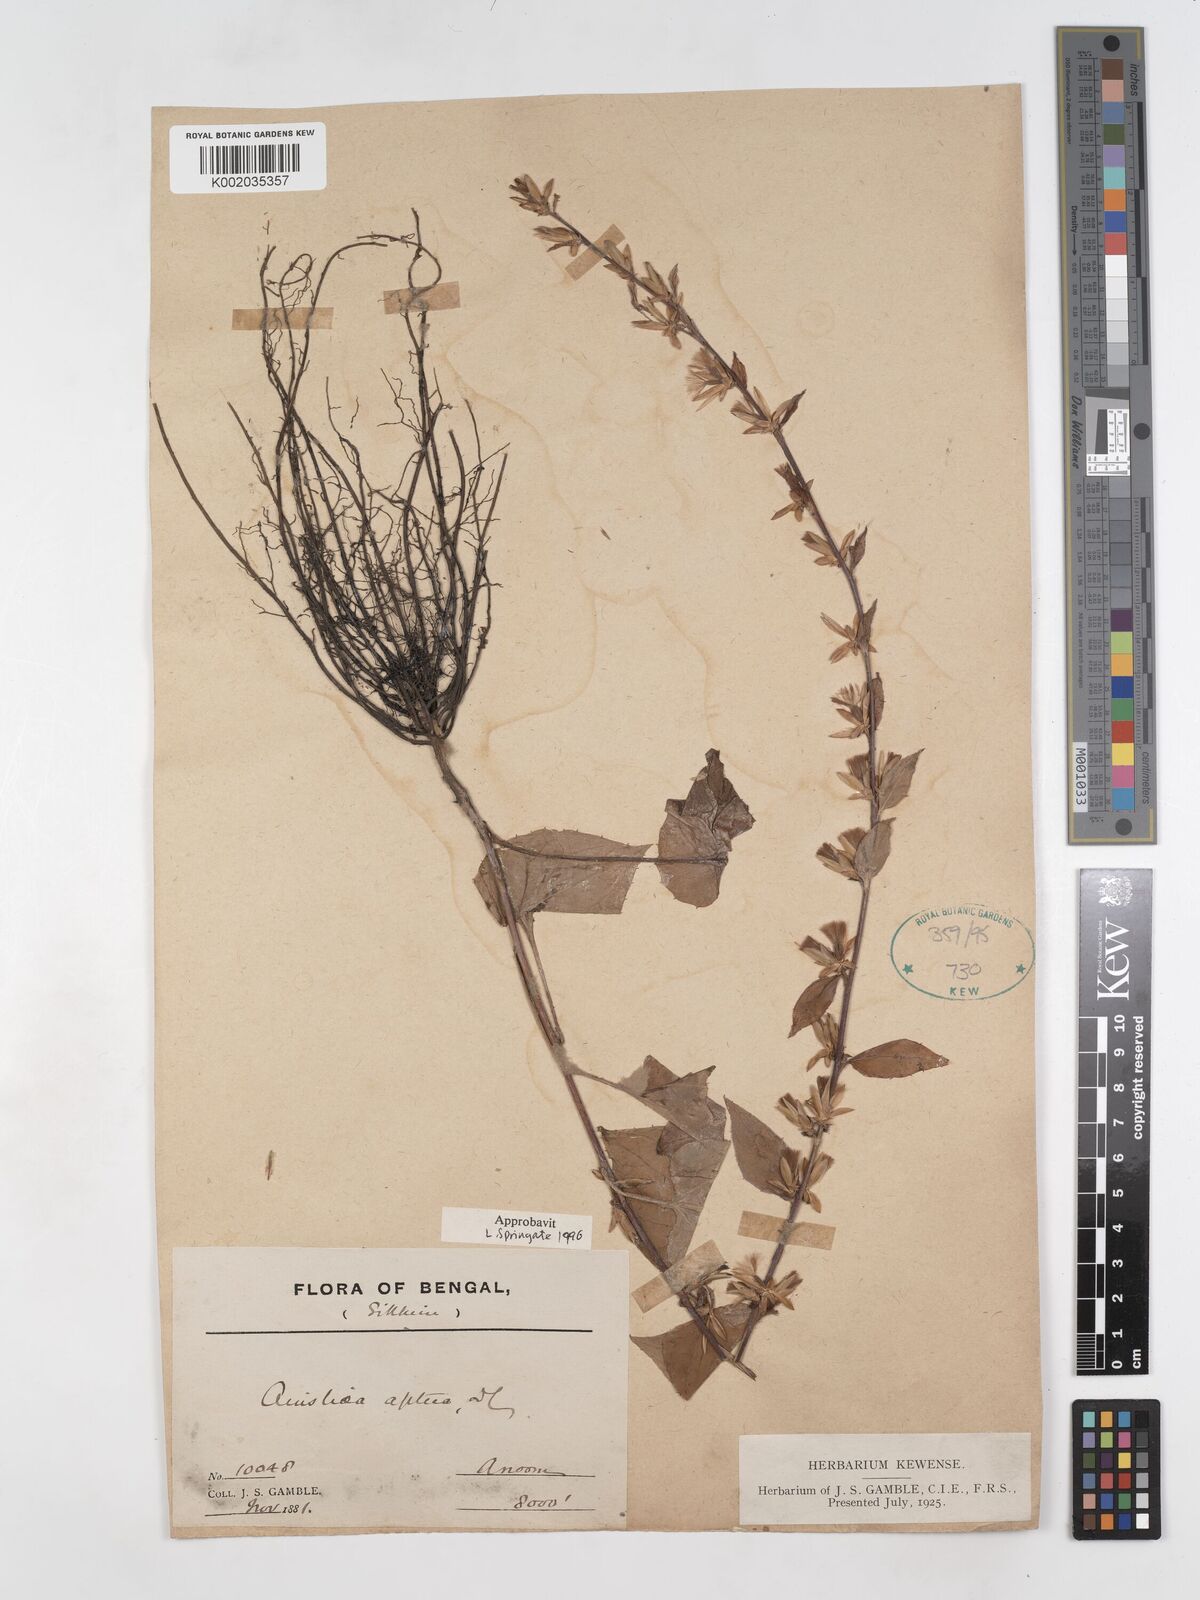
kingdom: Plantae
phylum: Tracheophyta
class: Magnoliopsida
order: Asterales
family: Asteraceae
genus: Ainsliaea
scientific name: Ainsliaea aptera
